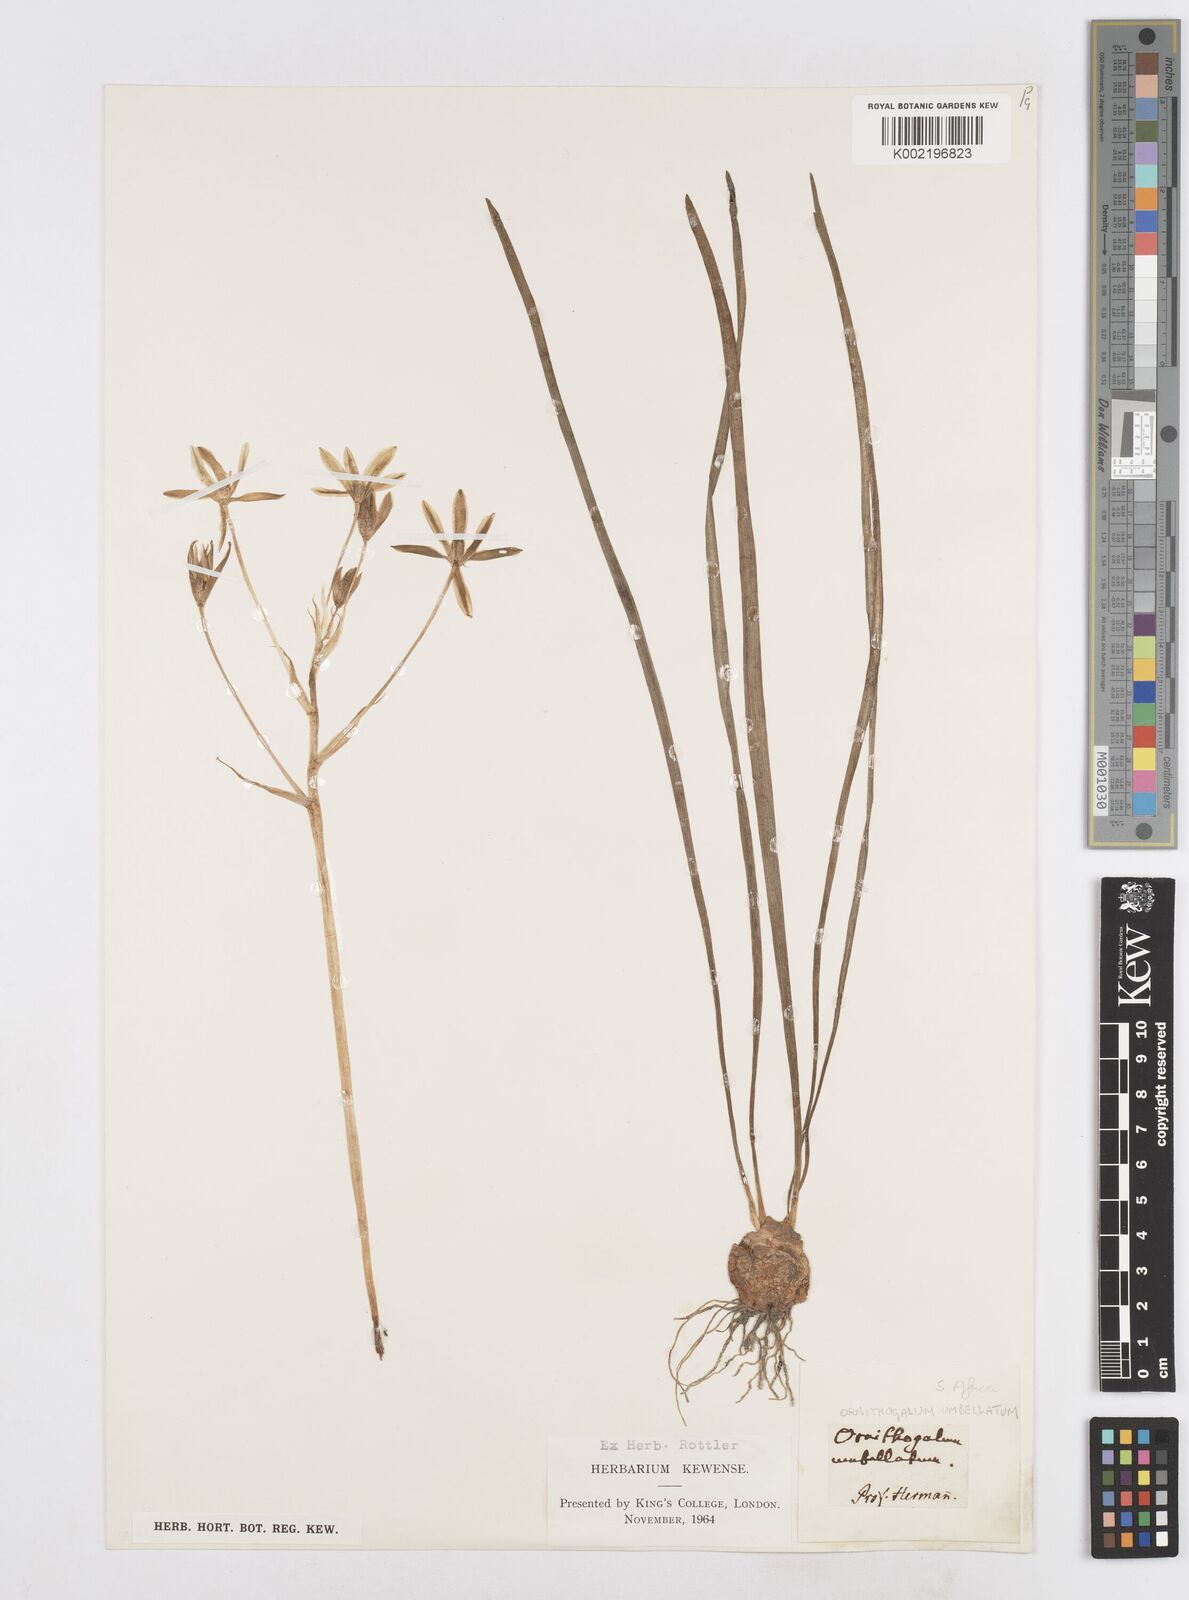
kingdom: Plantae
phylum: Tracheophyta
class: Liliopsida
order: Asparagales
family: Asparagaceae
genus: Ornithogalum
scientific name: Ornithogalum umbellatum
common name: Garden star-of-bethlehem
